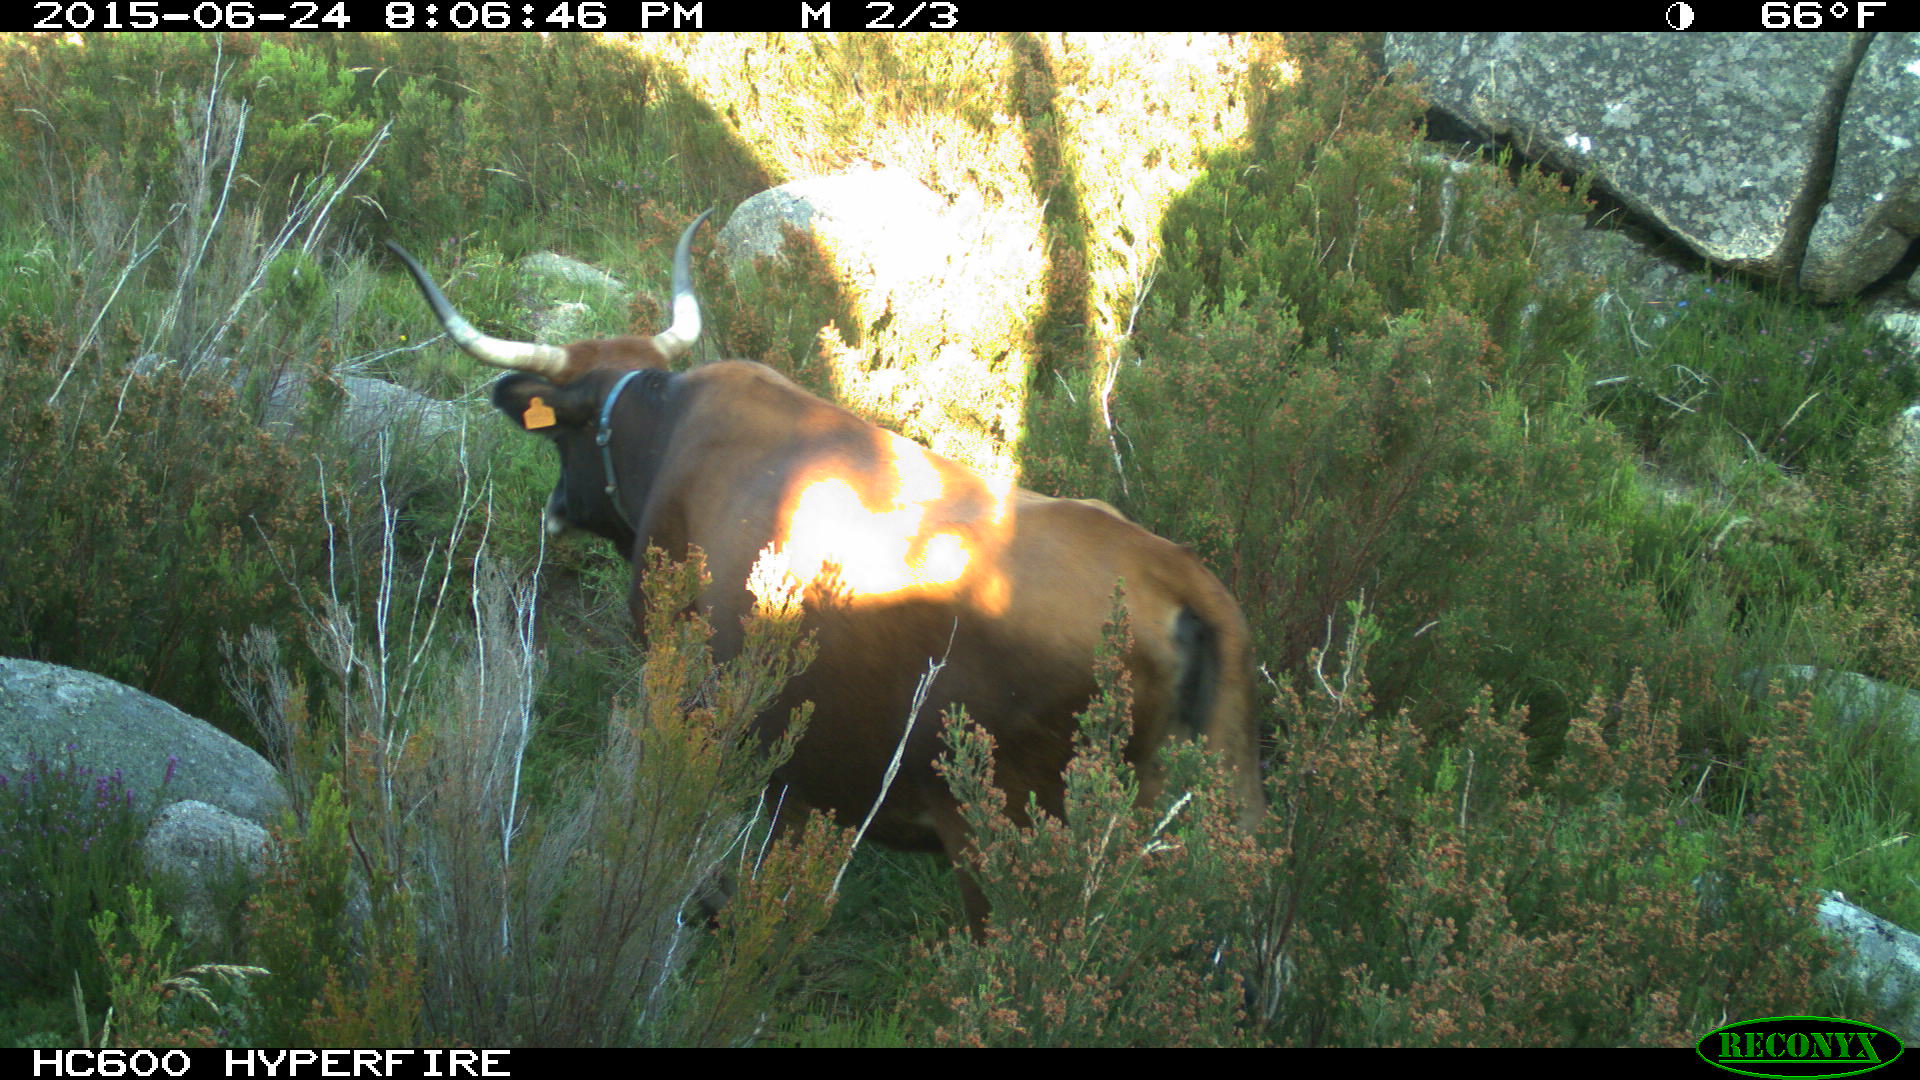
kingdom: Animalia
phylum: Chordata
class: Mammalia
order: Artiodactyla
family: Bovidae
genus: Bos
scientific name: Bos taurus
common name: Domesticated cattle
